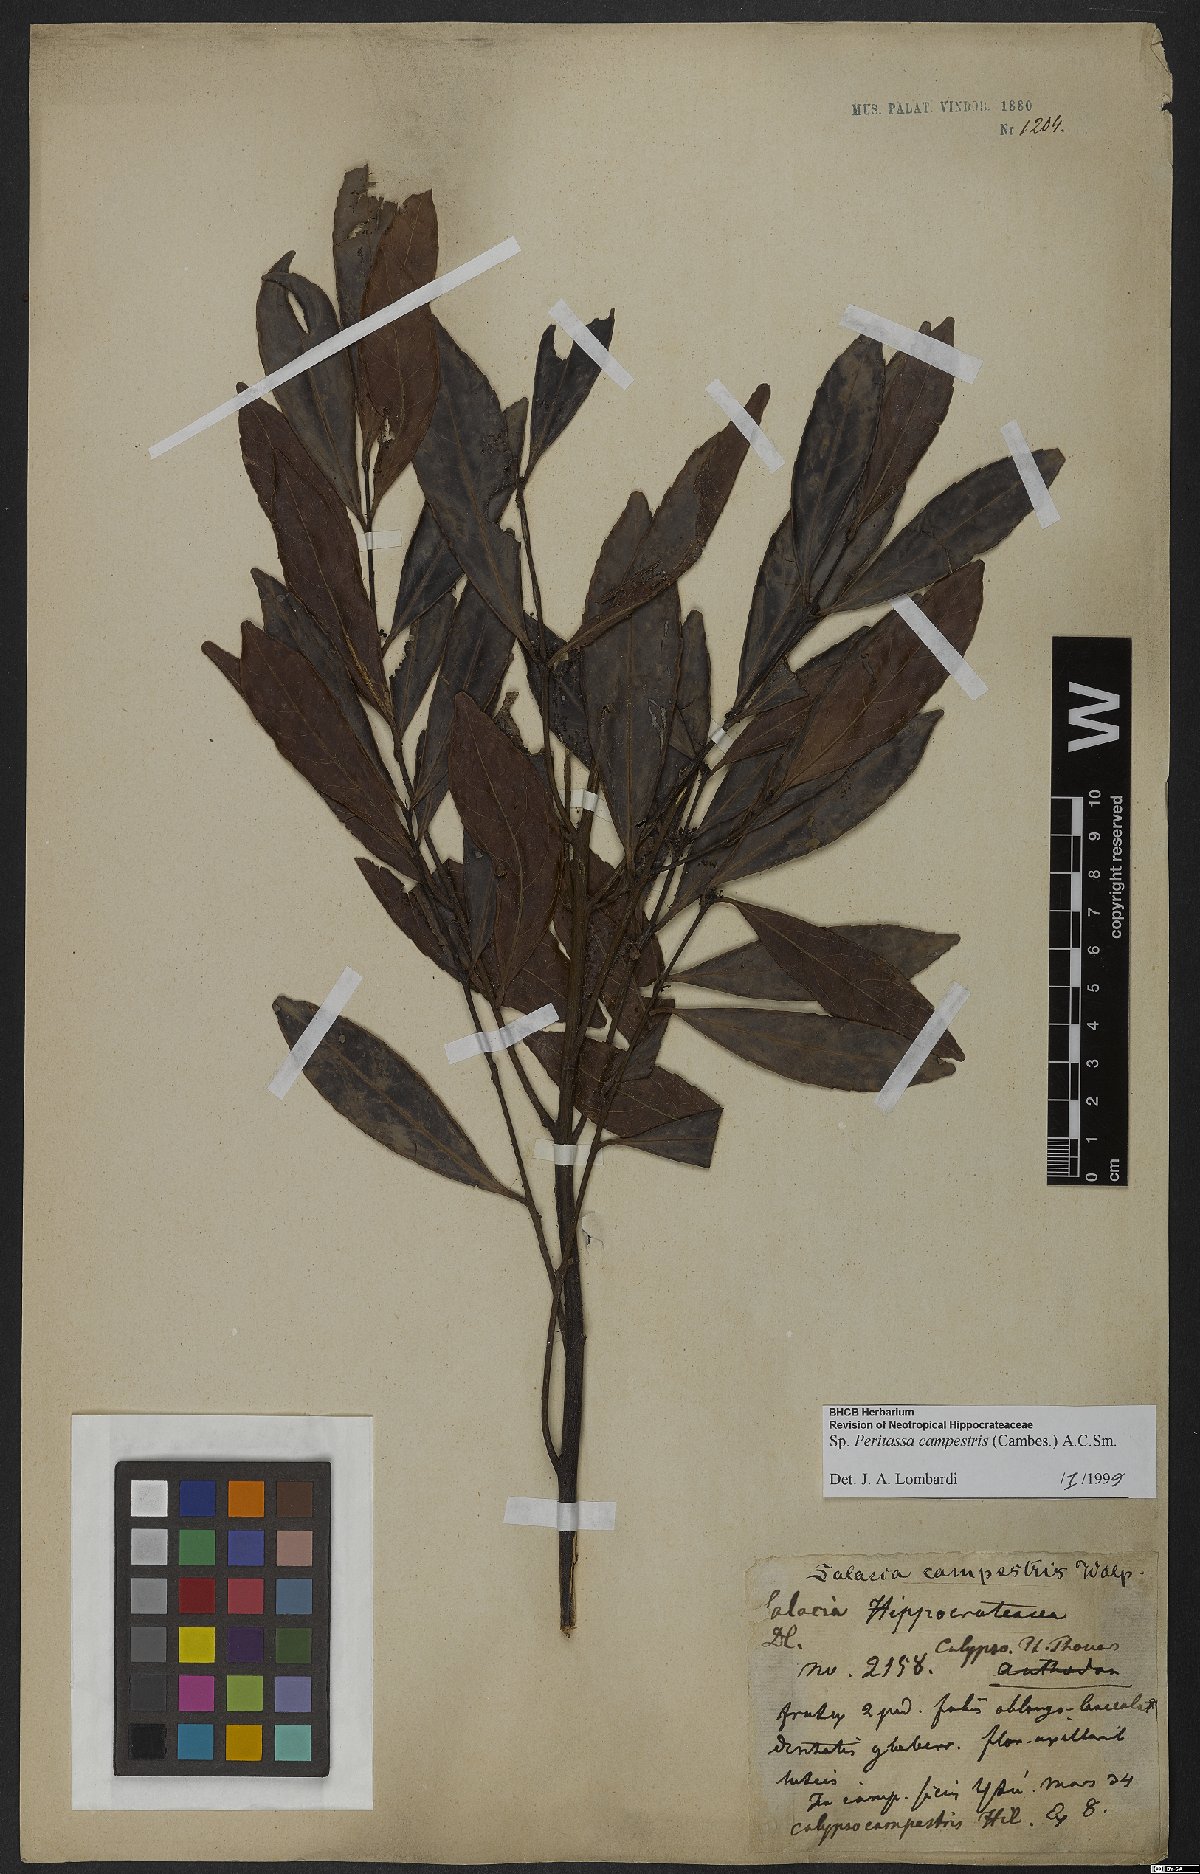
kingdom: Plantae
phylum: Tracheophyta
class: Magnoliopsida
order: Celastrales
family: Celastraceae
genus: Peritassa
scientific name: Peritassa campestris
